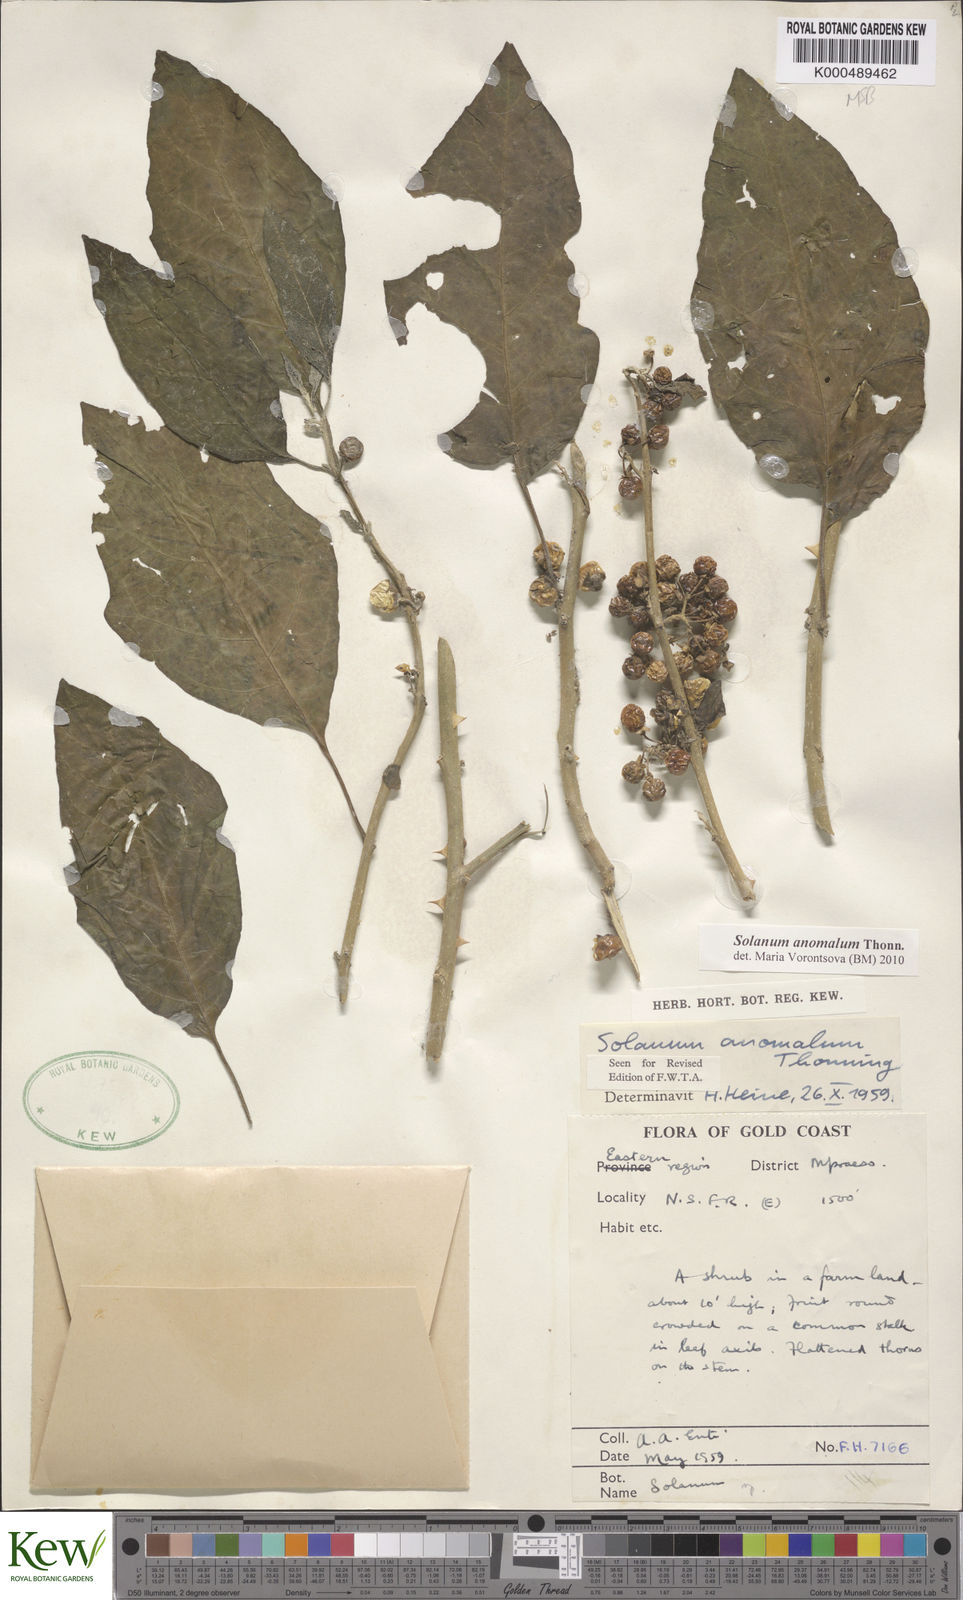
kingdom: Plantae
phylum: Tracheophyta
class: Magnoliopsida
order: Solanales
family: Solanaceae
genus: Solanum
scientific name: Solanum anomalum
